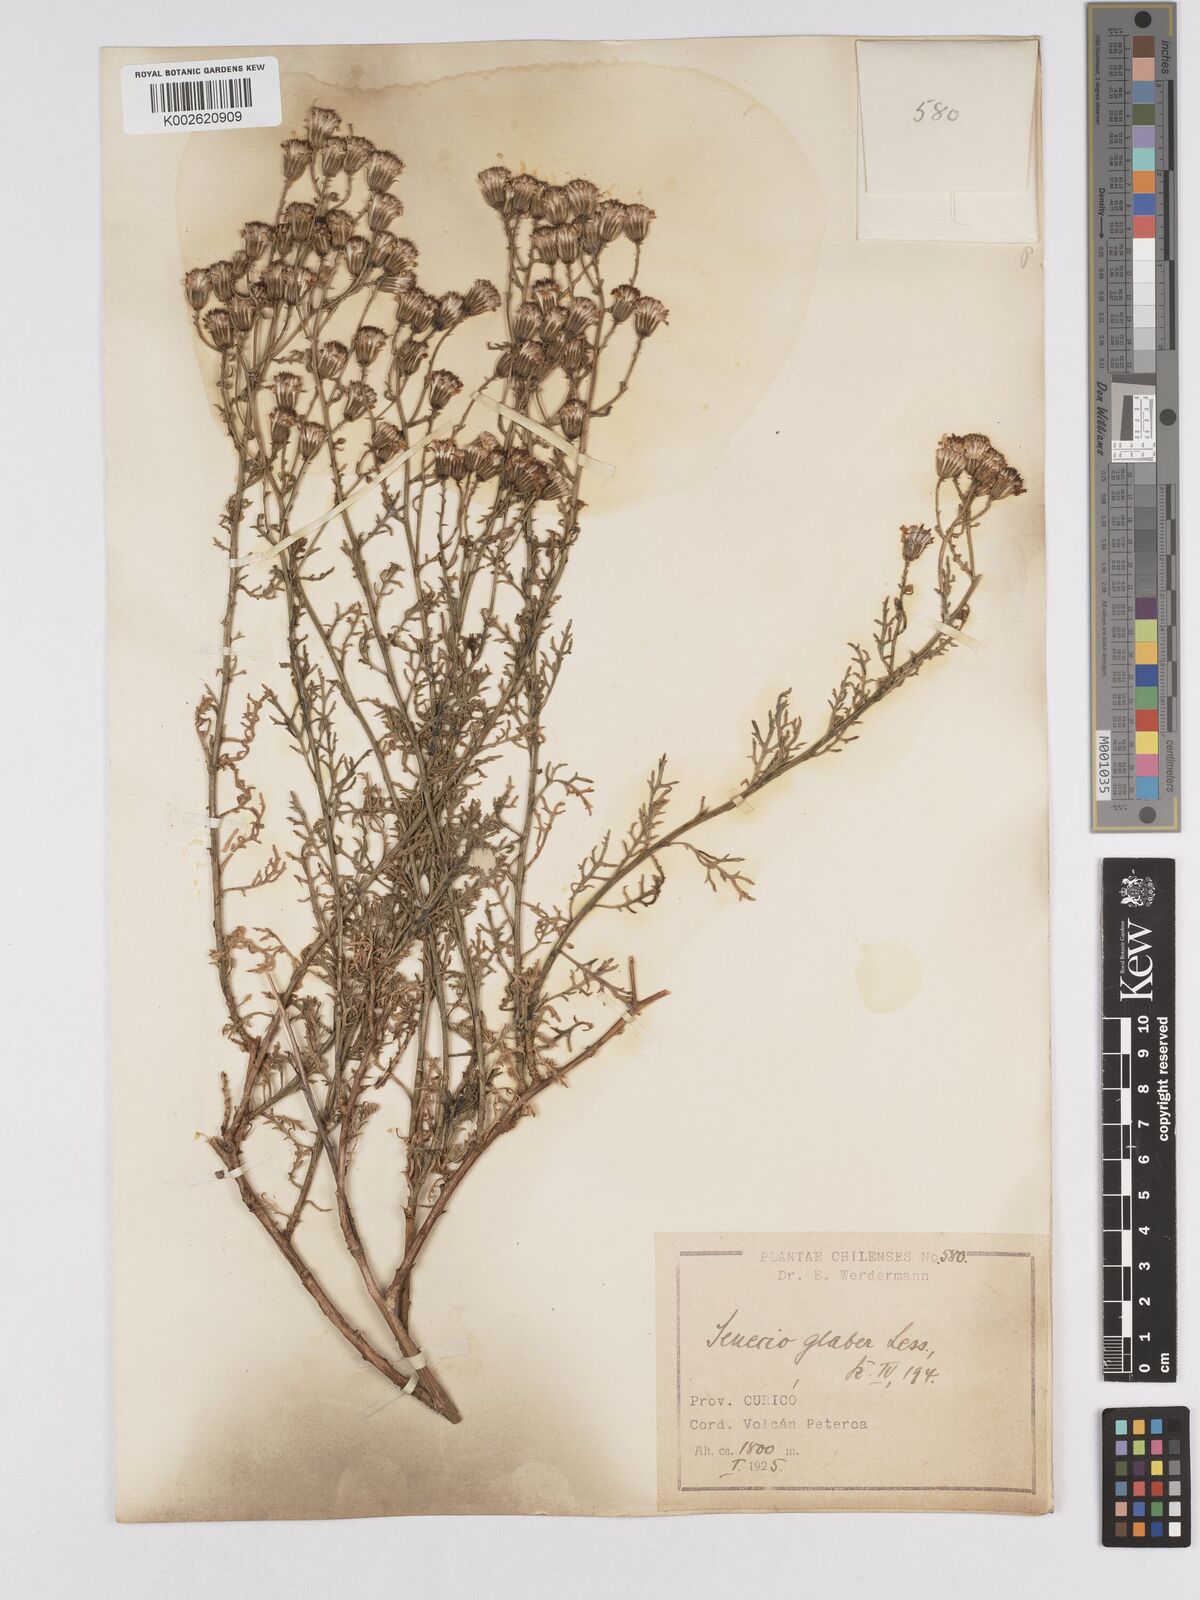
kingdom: Plantae
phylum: Tracheophyta
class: Magnoliopsida
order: Asterales
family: Asteraceae
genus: Senecio
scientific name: Senecio glaber
